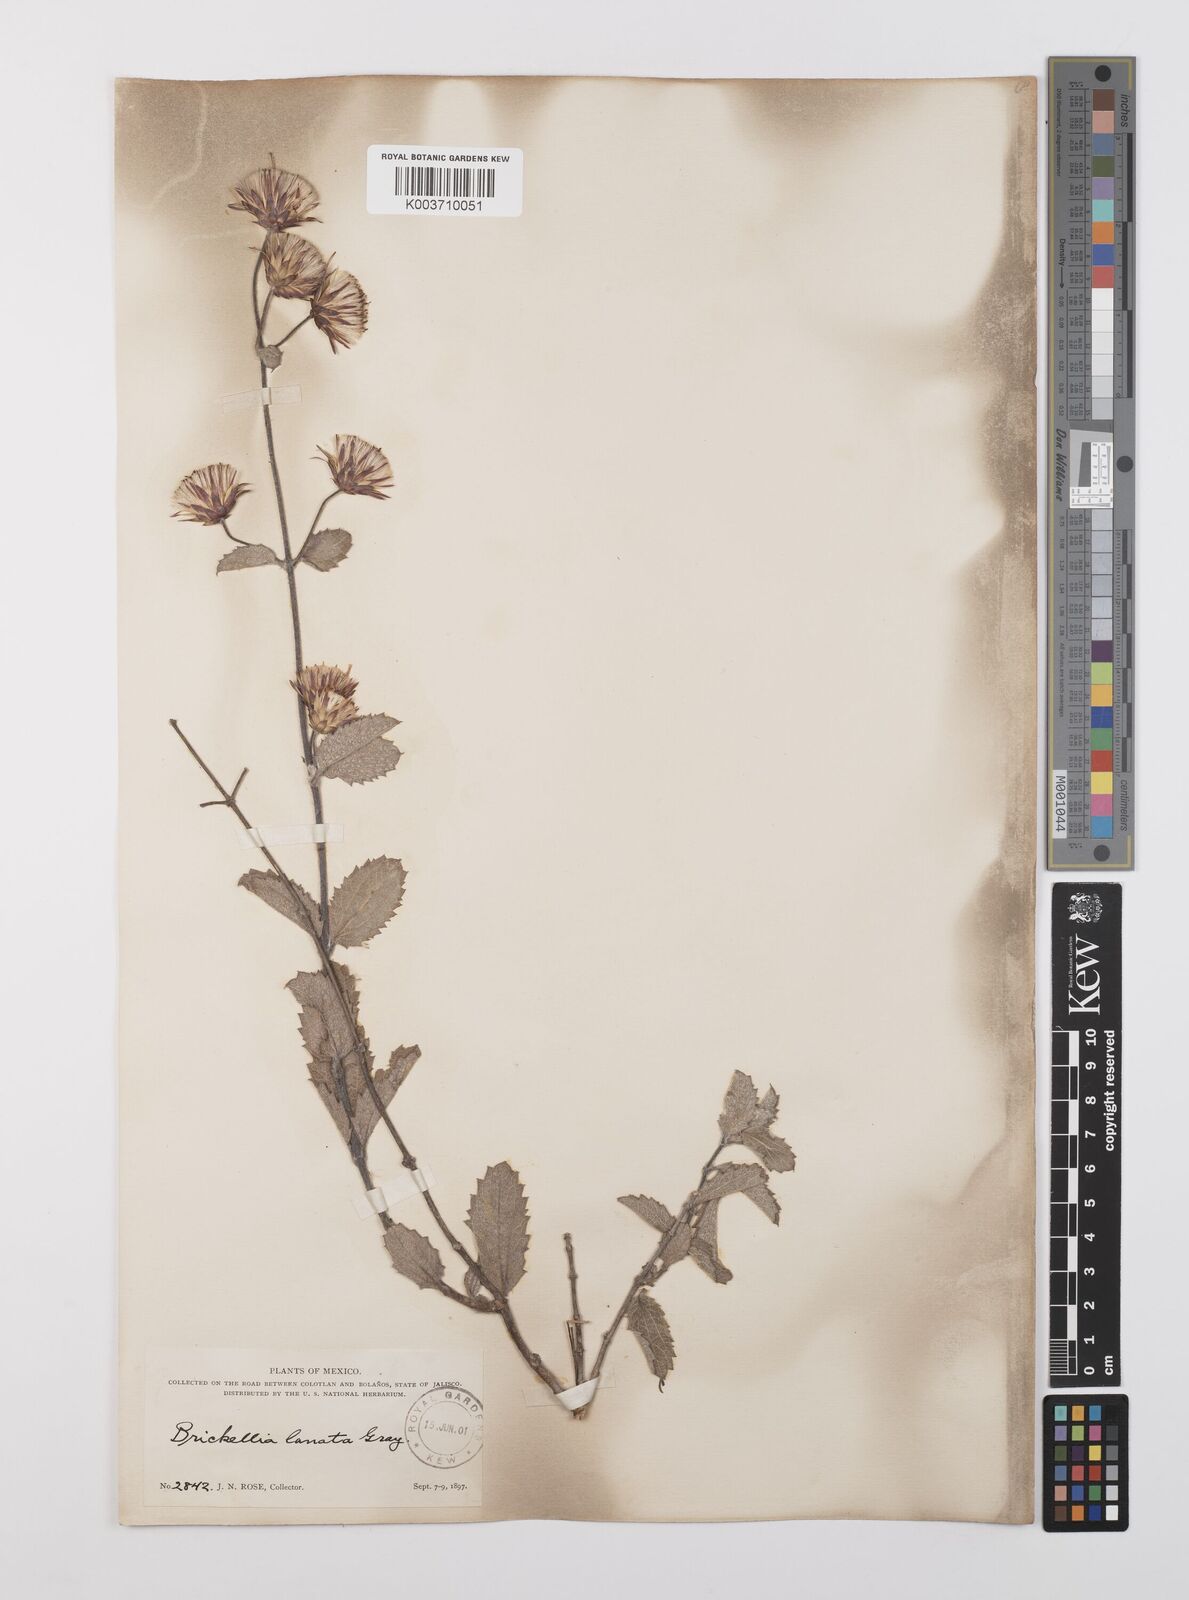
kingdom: Plantae
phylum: Tracheophyta
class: Magnoliopsida
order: Asterales
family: Asteraceae
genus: Brickellia
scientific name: Brickellia lanata
